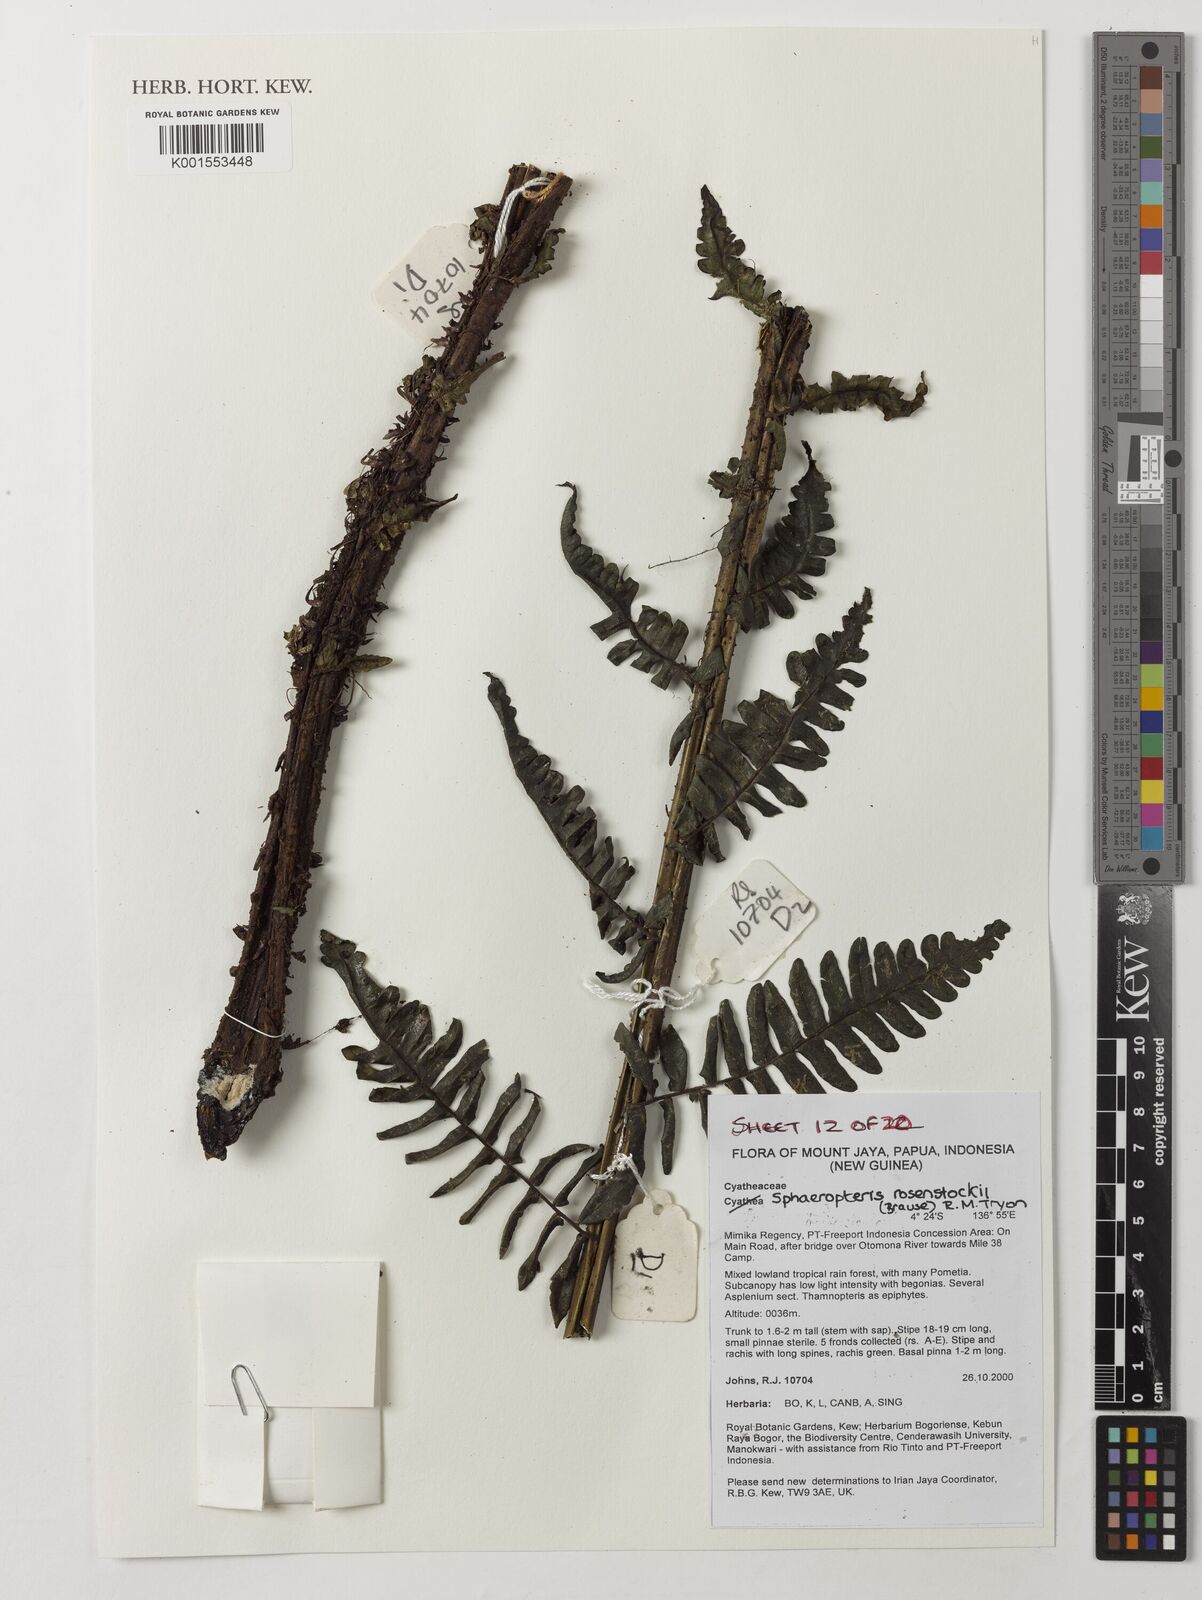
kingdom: Plantae
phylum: Tracheophyta
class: Polypodiopsida
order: Cyatheales
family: Cyatheaceae
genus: Sphaeropteris
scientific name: Sphaeropteris rosenstockii
